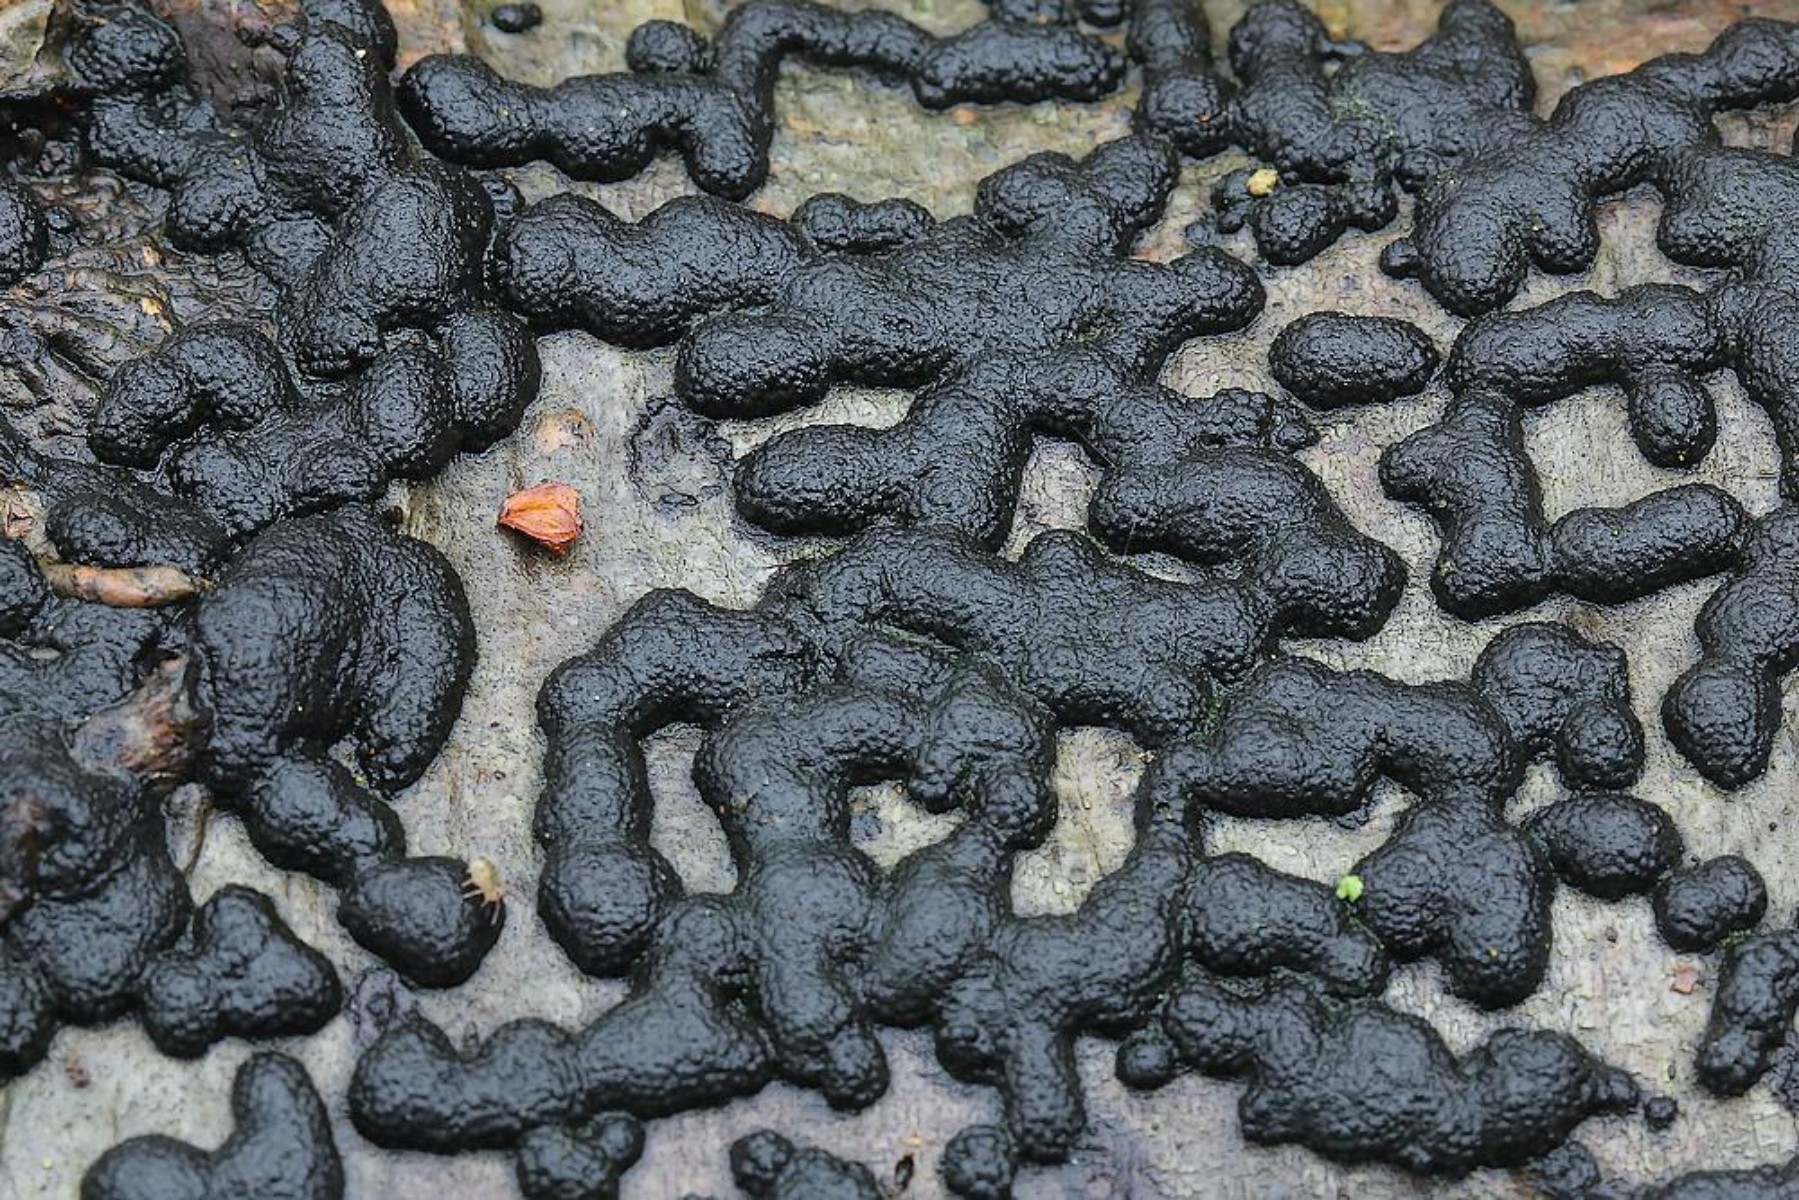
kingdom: Fungi
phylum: Ascomycota
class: Sordariomycetes
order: Xylariales
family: Hypoxylaceae
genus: Hypoxylon
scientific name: Hypoxylon
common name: kulbær
